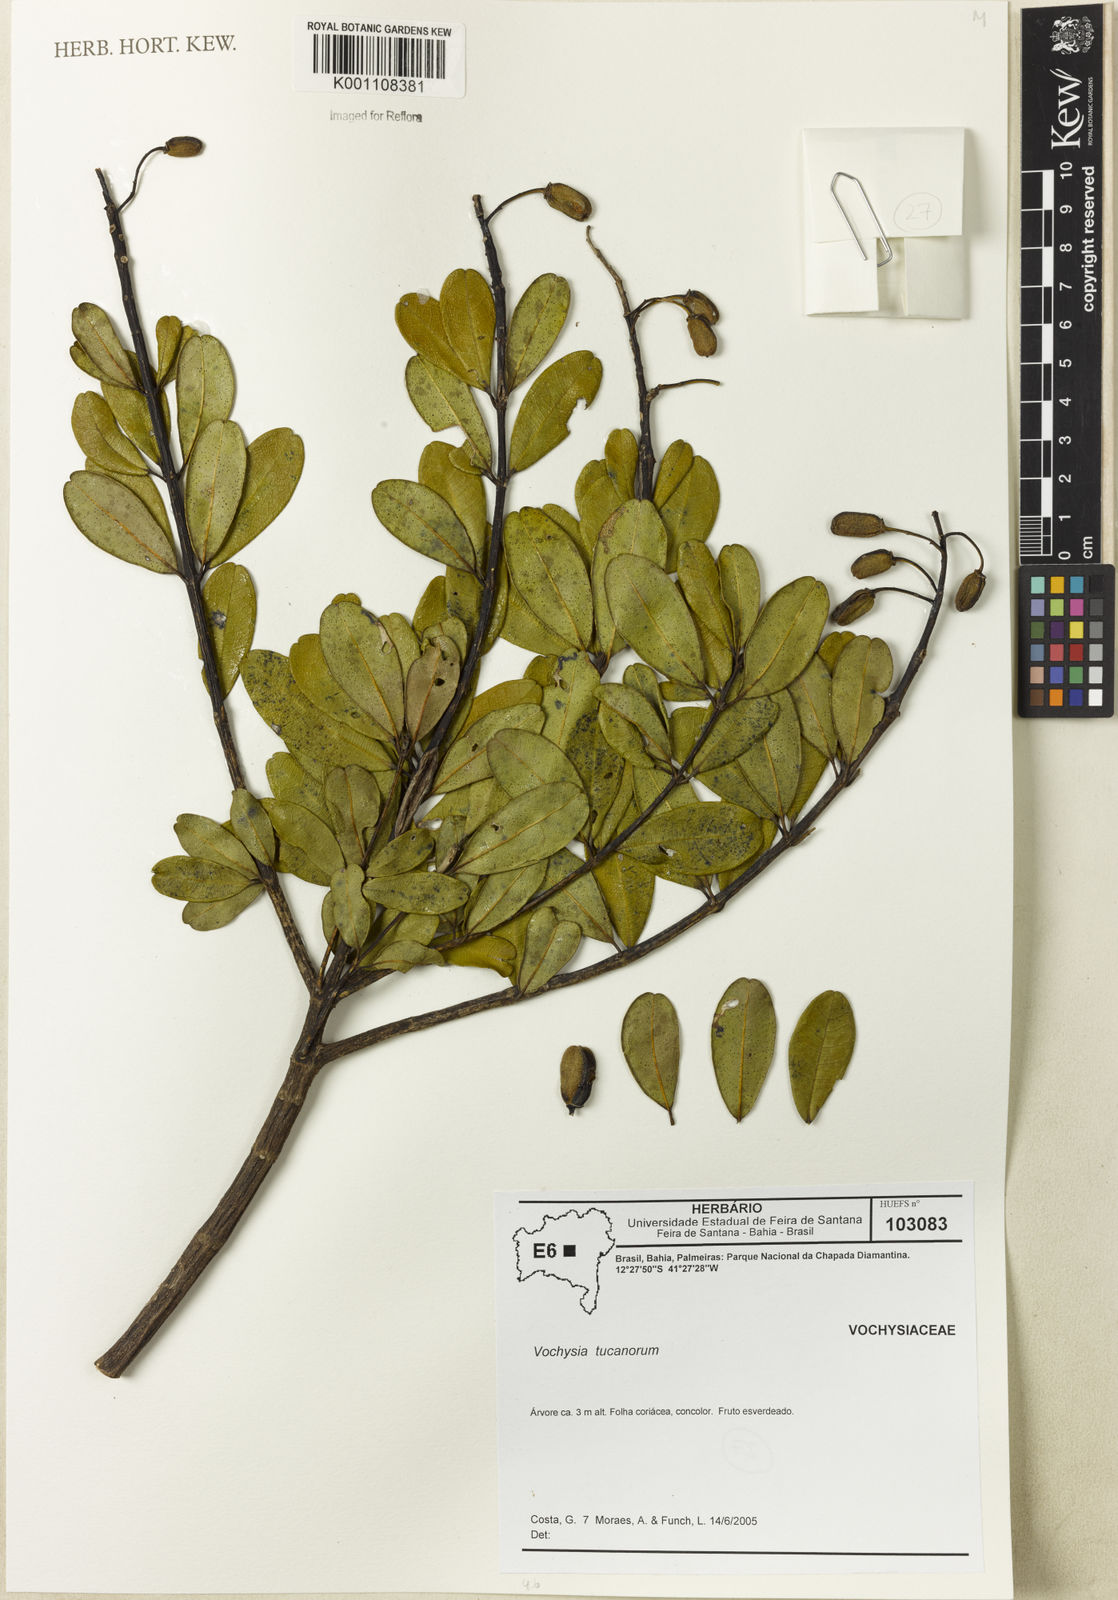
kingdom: Plantae
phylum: Tracheophyta
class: Magnoliopsida
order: Myrtales
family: Vochysiaceae
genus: Vochysia
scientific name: Vochysia tucanorum
